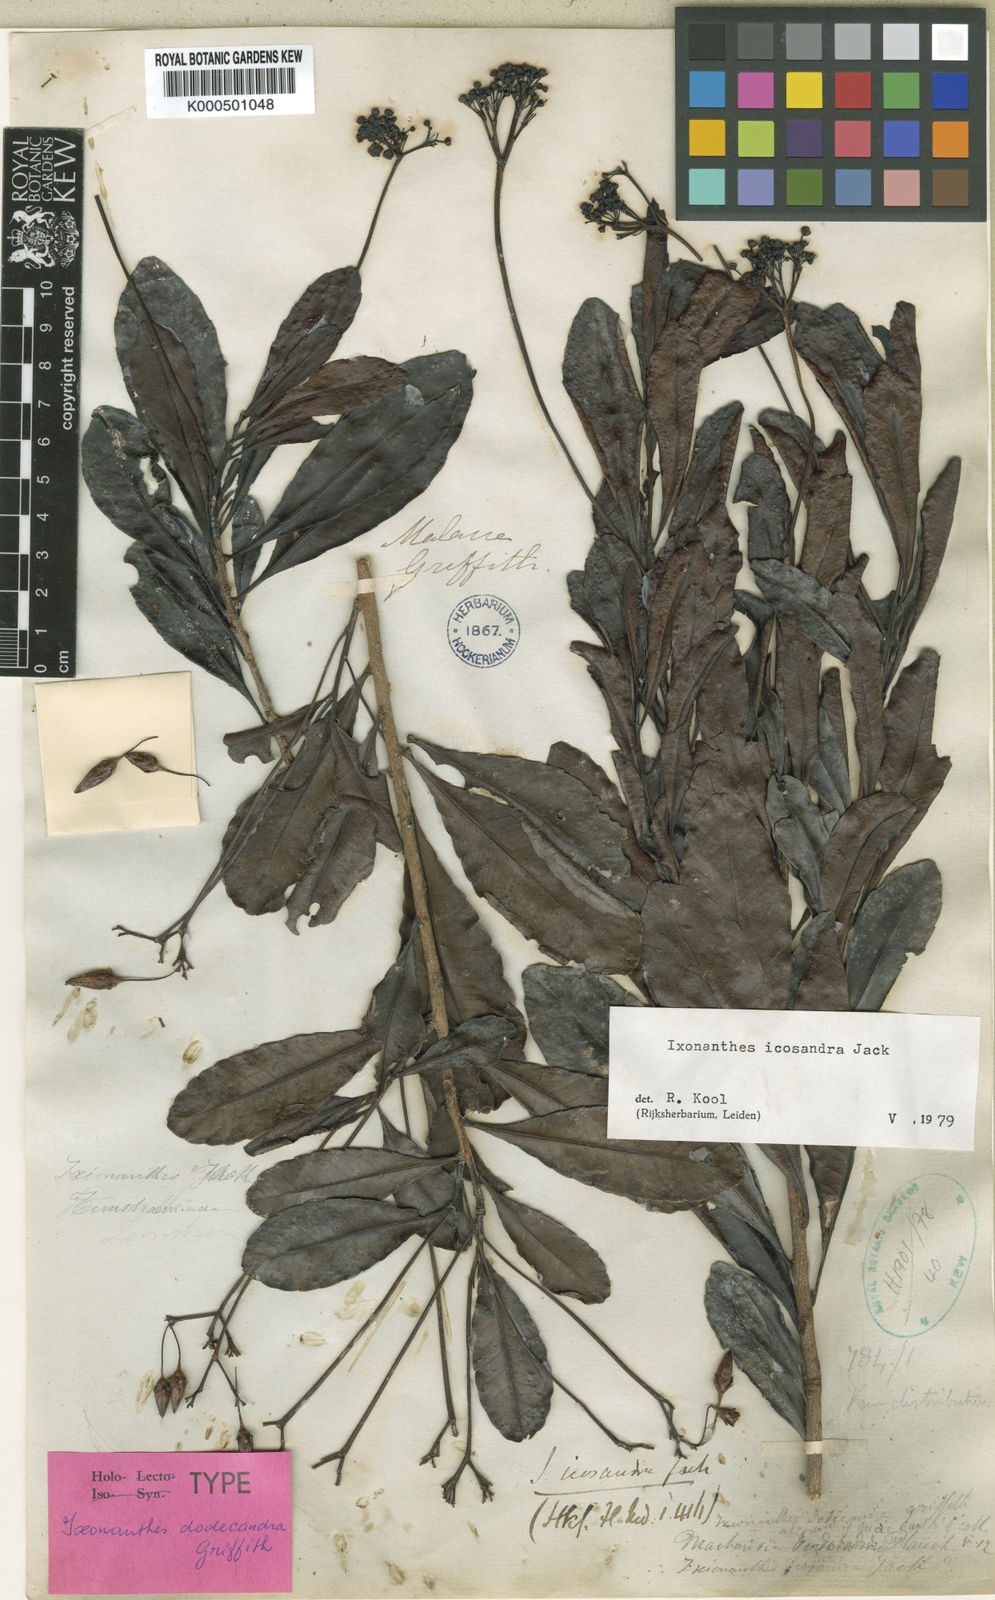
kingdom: Plantae
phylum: Tracheophyta
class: Magnoliopsida
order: Malpighiales
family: Ixonanthaceae
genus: Ixonanthes
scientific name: Ixonanthes icosandra
